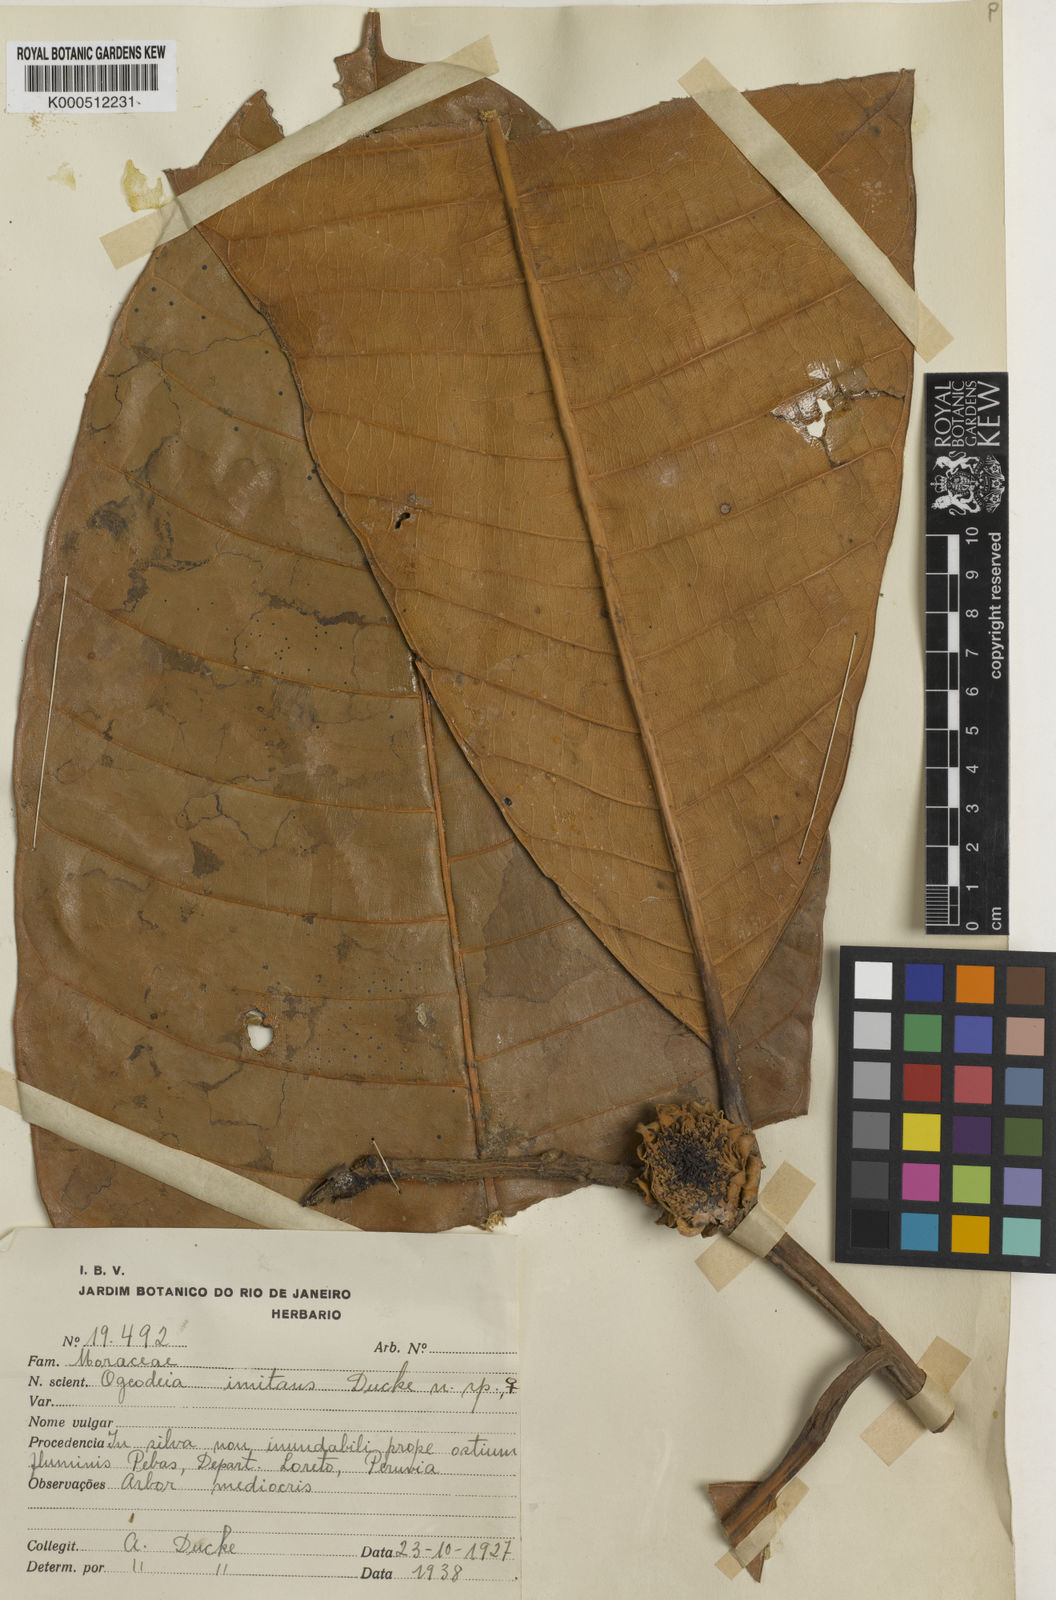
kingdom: Plantae
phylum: Tracheophyta
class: Magnoliopsida
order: Rosales
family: Moraceae
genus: Naucleopsis
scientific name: Naucleopsis imitans
